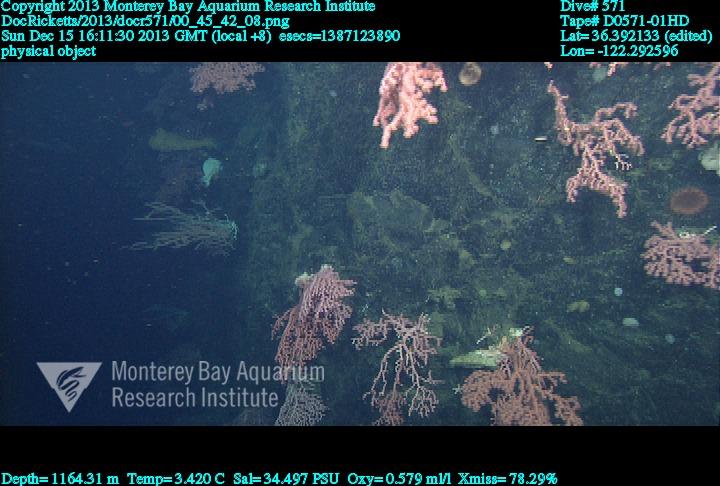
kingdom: Animalia
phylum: Cnidaria
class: Anthozoa
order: Scleralcyonacea
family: Coralliidae
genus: Paragorgia
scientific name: Paragorgia arborea
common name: Bubble gum coral
